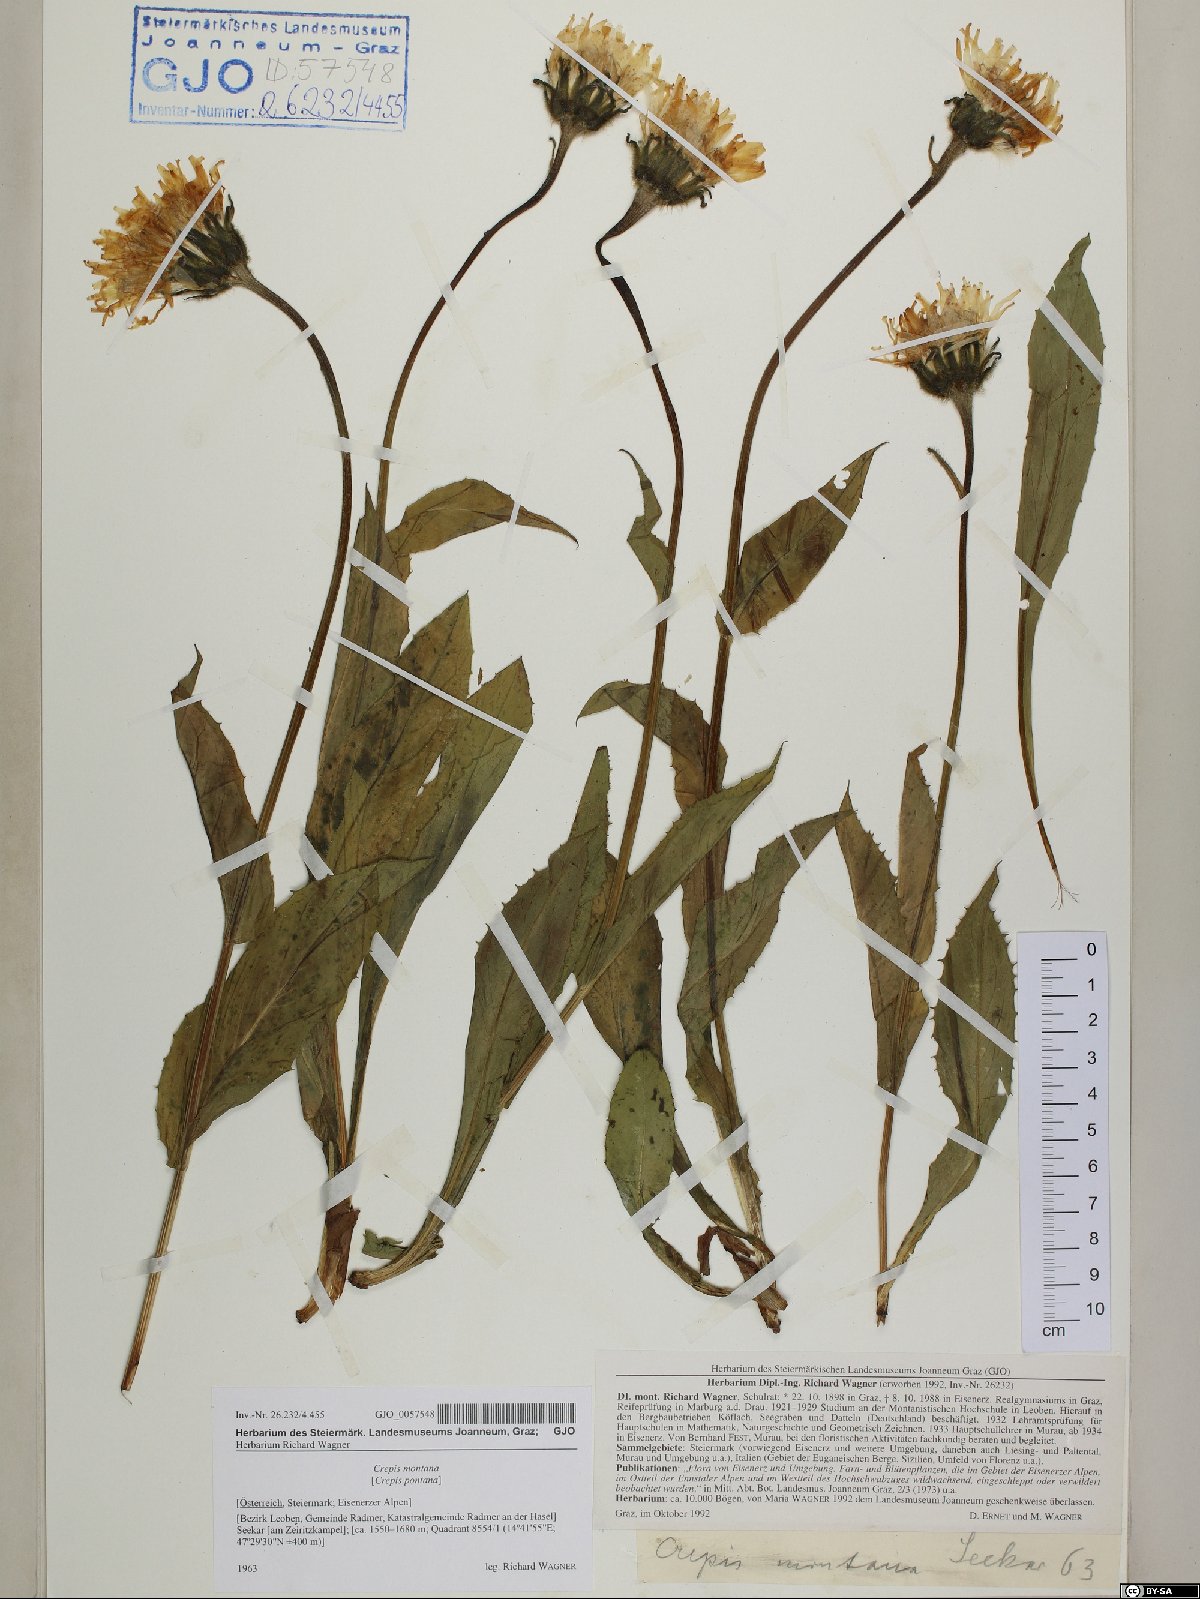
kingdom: Plantae
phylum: Tracheophyta
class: Magnoliopsida
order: Asterales
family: Asteraceae
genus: Crepis
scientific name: Crepis pontana
